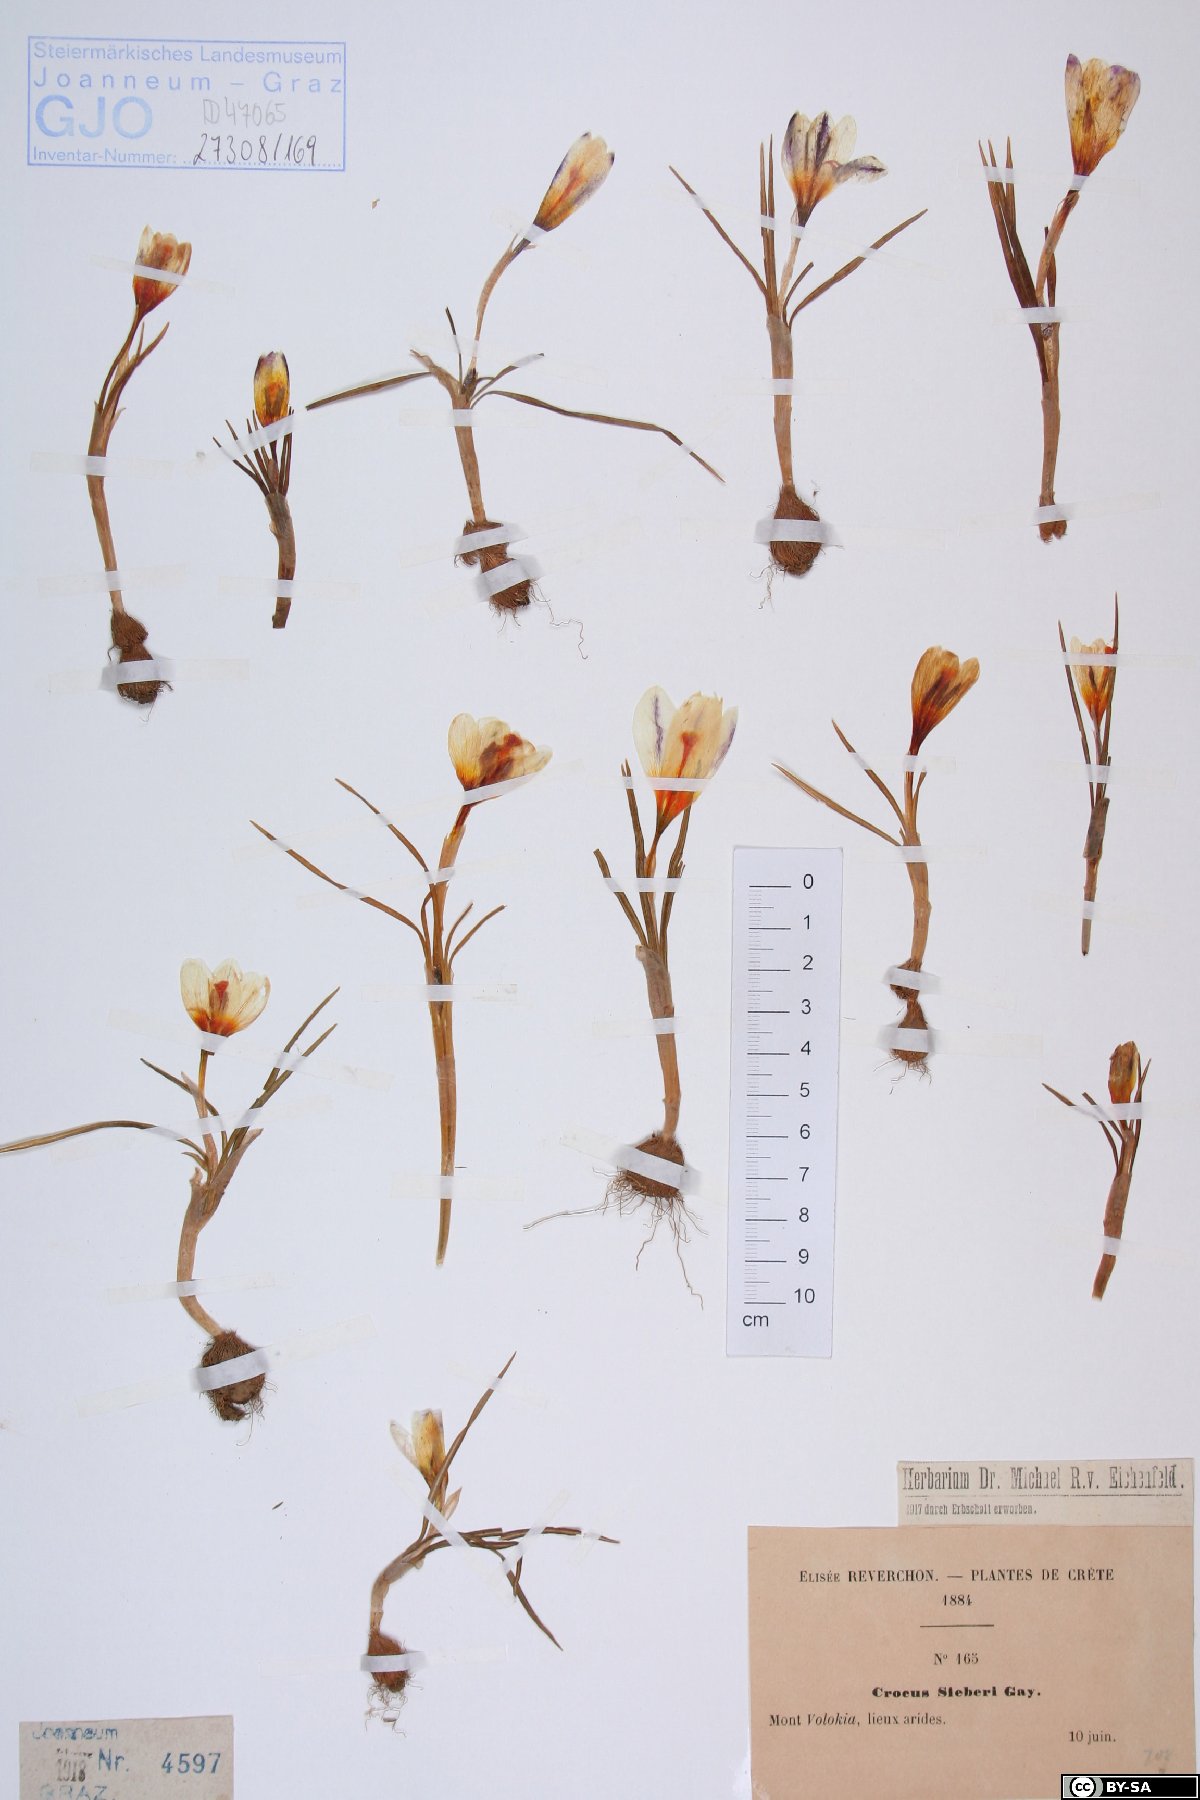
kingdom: Plantae
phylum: Tracheophyta
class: Liliopsida
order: Asparagales
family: Iridaceae
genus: Crocus
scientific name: Crocus sieberi
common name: Sieber's crocus
